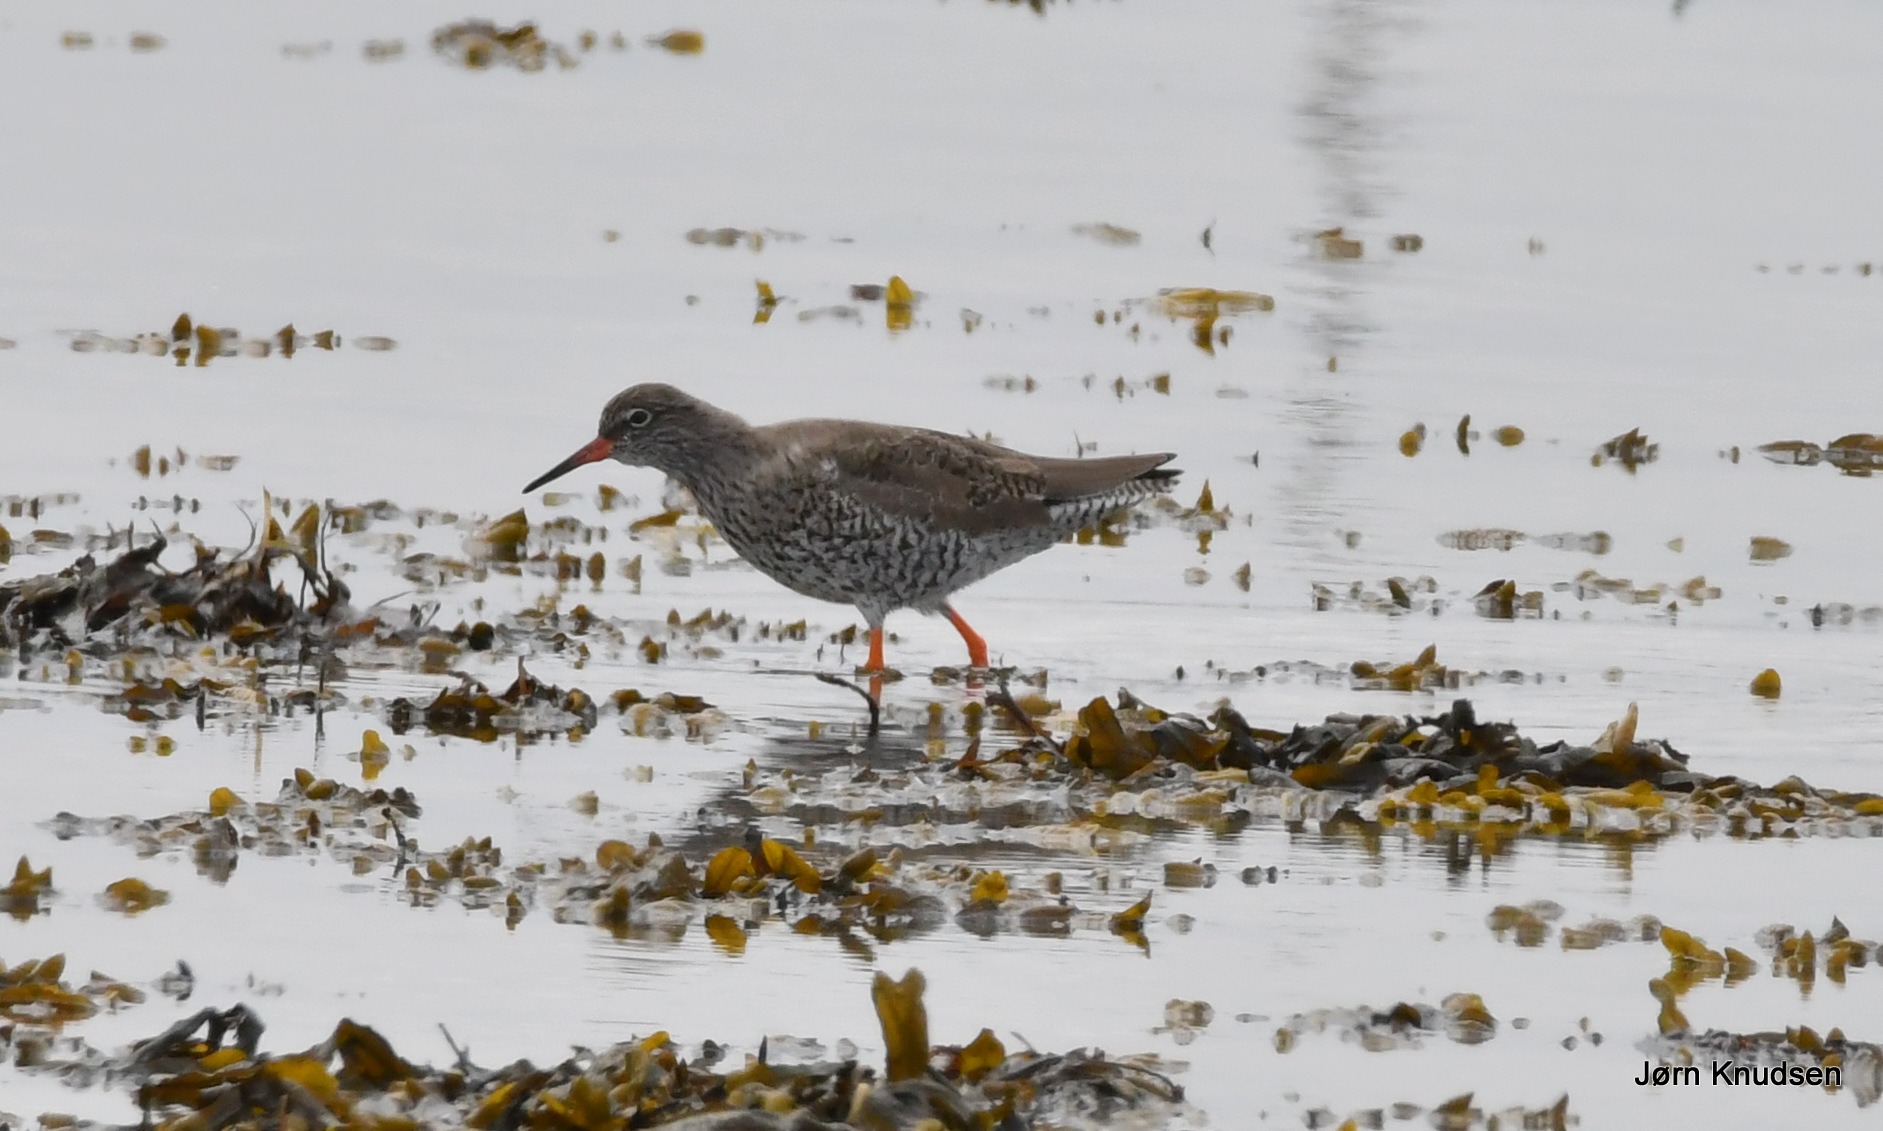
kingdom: Animalia
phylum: Chordata
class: Aves
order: Charadriiformes
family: Scolopacidae
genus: Tringa
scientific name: Tringa totanus
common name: Rødben
